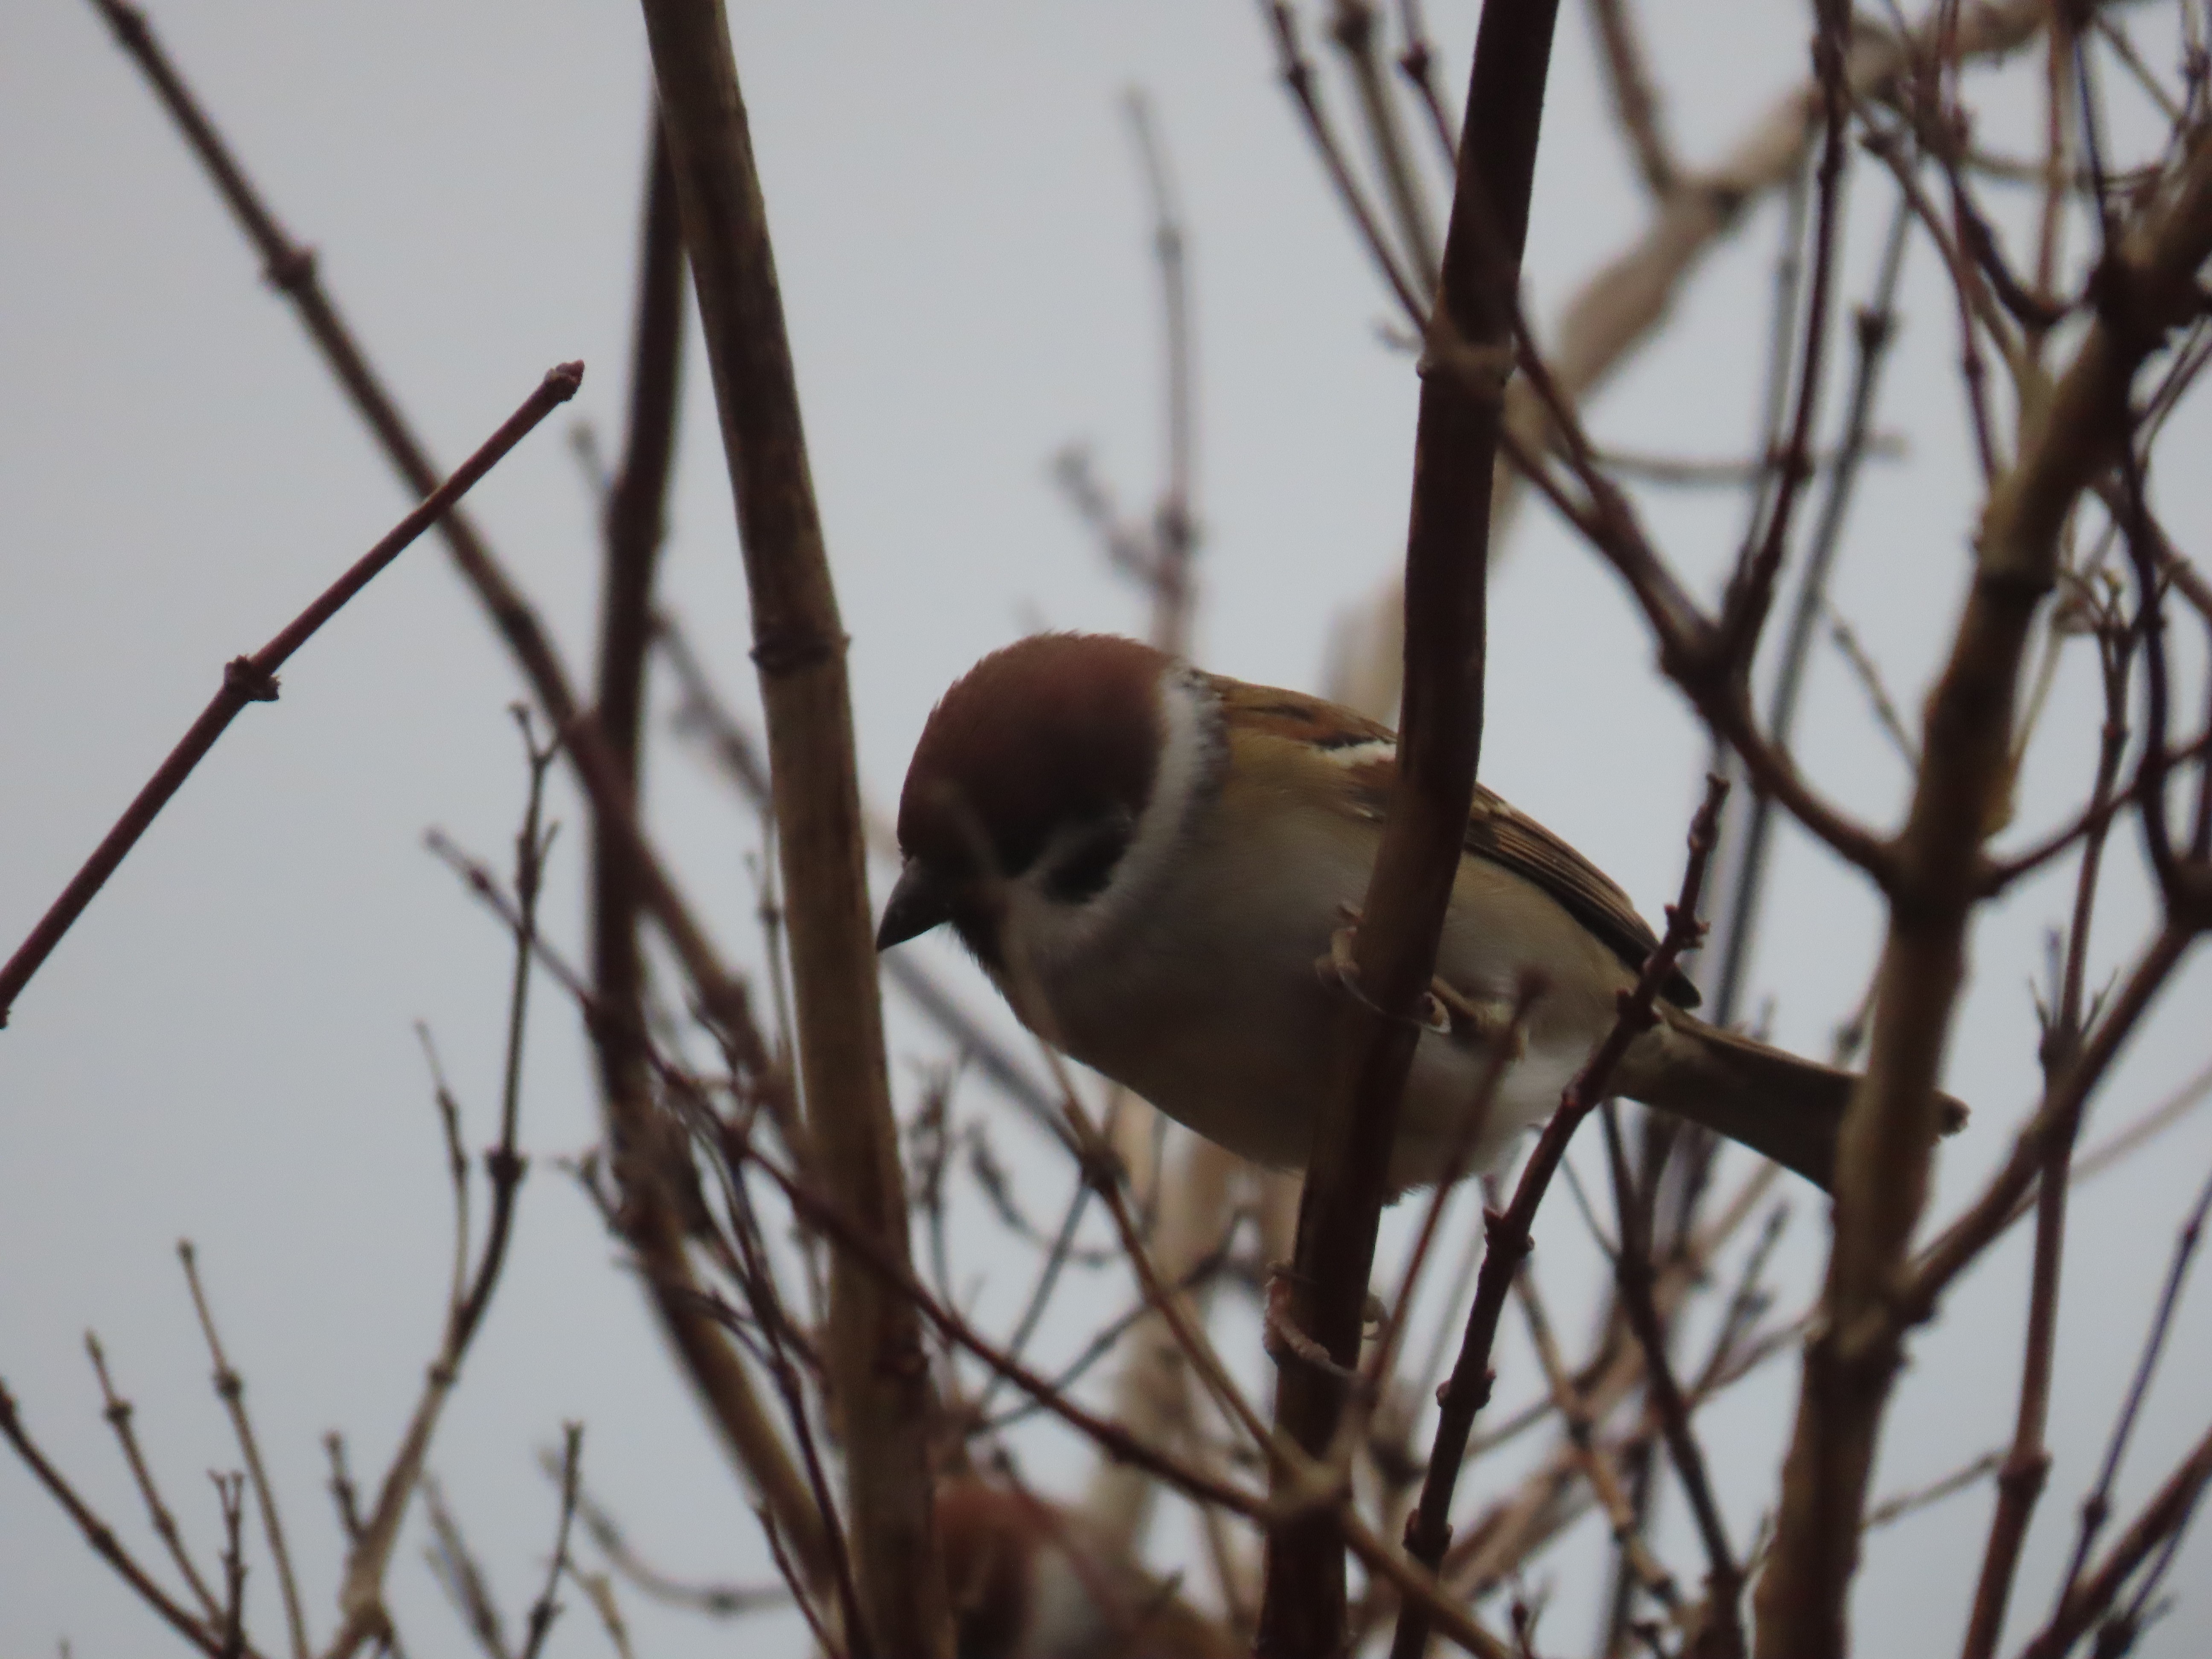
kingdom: Animalia
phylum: Chordata
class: Aves
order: Passeriformes
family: Passeridae
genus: Passer
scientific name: Passer montanus
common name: Skovspurv
